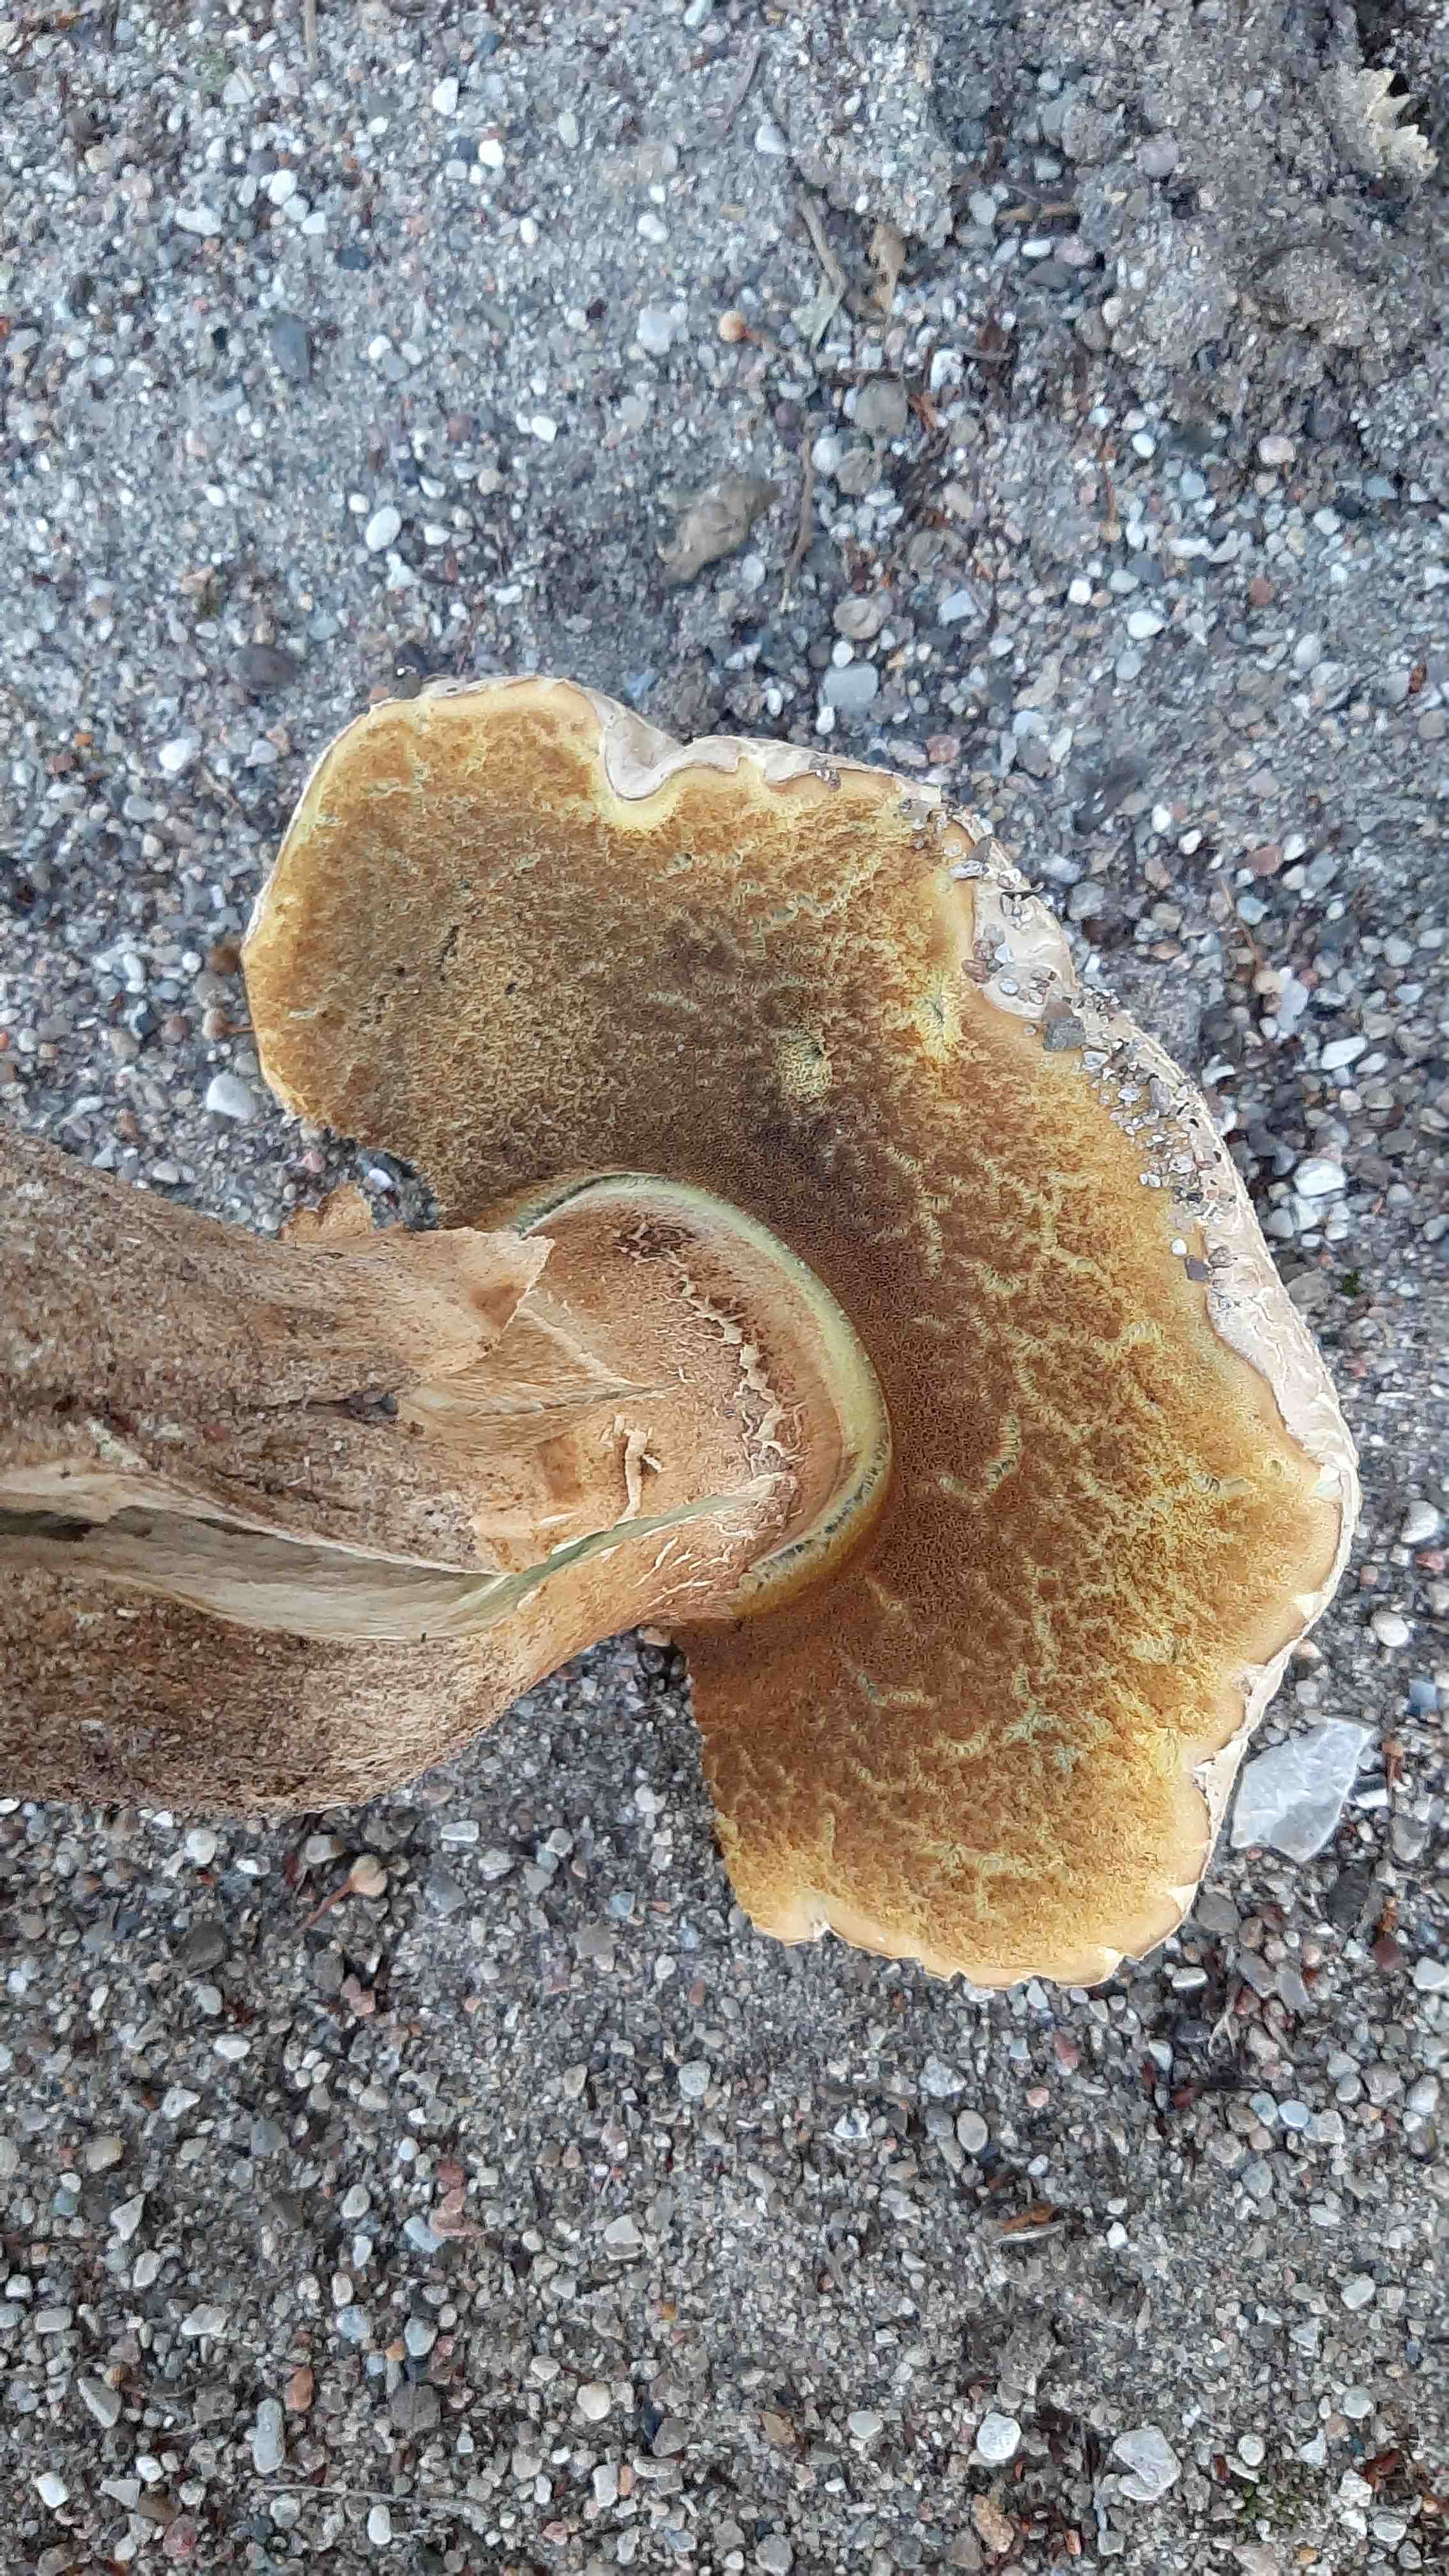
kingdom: Fungi
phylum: Basidiomycota
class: Agaricomycetes
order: Boletales
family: Boletaceae
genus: Caloboletus
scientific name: Caloboletus radicans
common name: rod-rørhat
